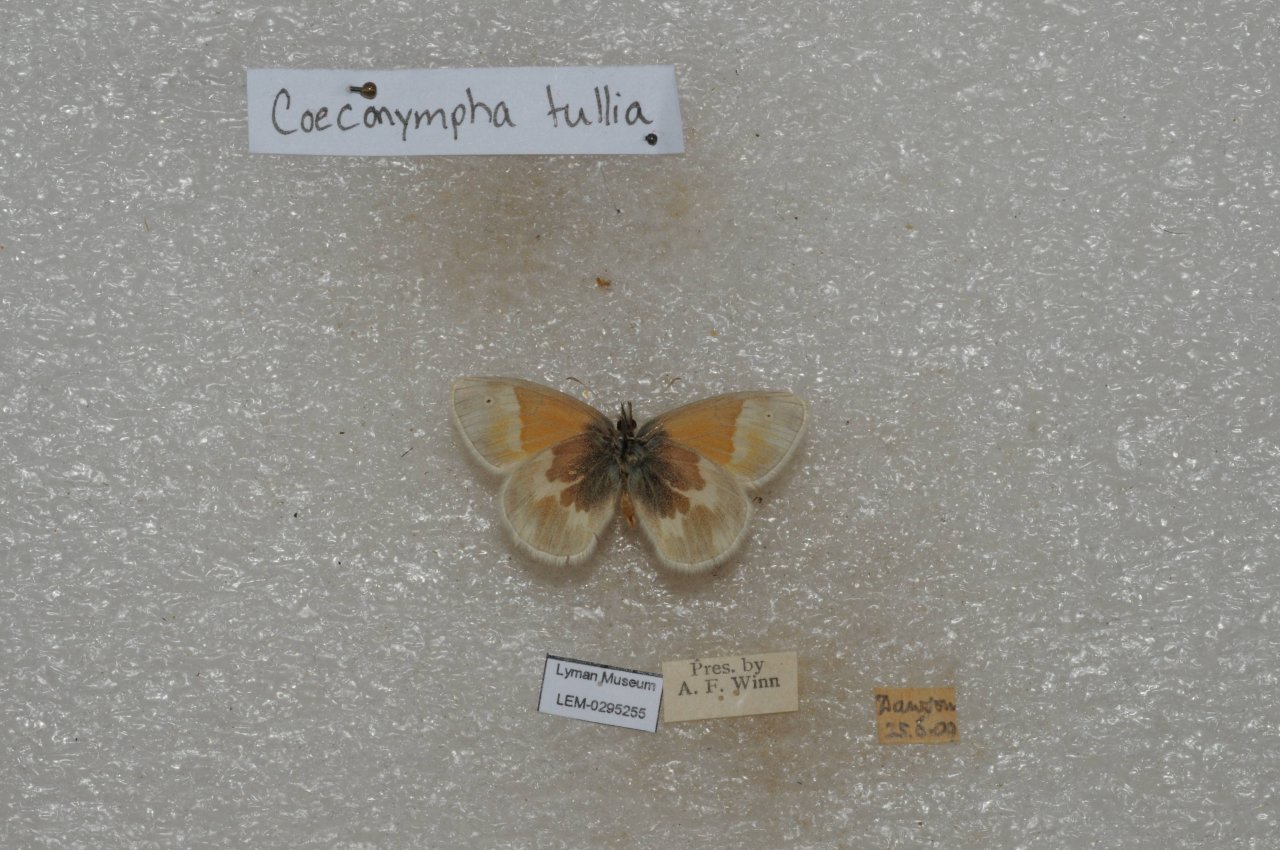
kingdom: Animalia
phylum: Arthropoda
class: Insecta
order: Lepidoptera
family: Nymphalidae
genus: Coenonympha
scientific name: Coenonympha tullia
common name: Large Heath
